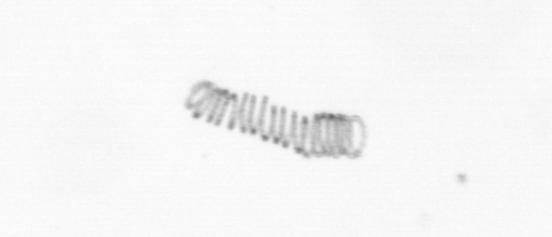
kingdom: Chromista
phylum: Ochrophyta
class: Bacillariophyceae
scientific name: Bacillariophyceae
